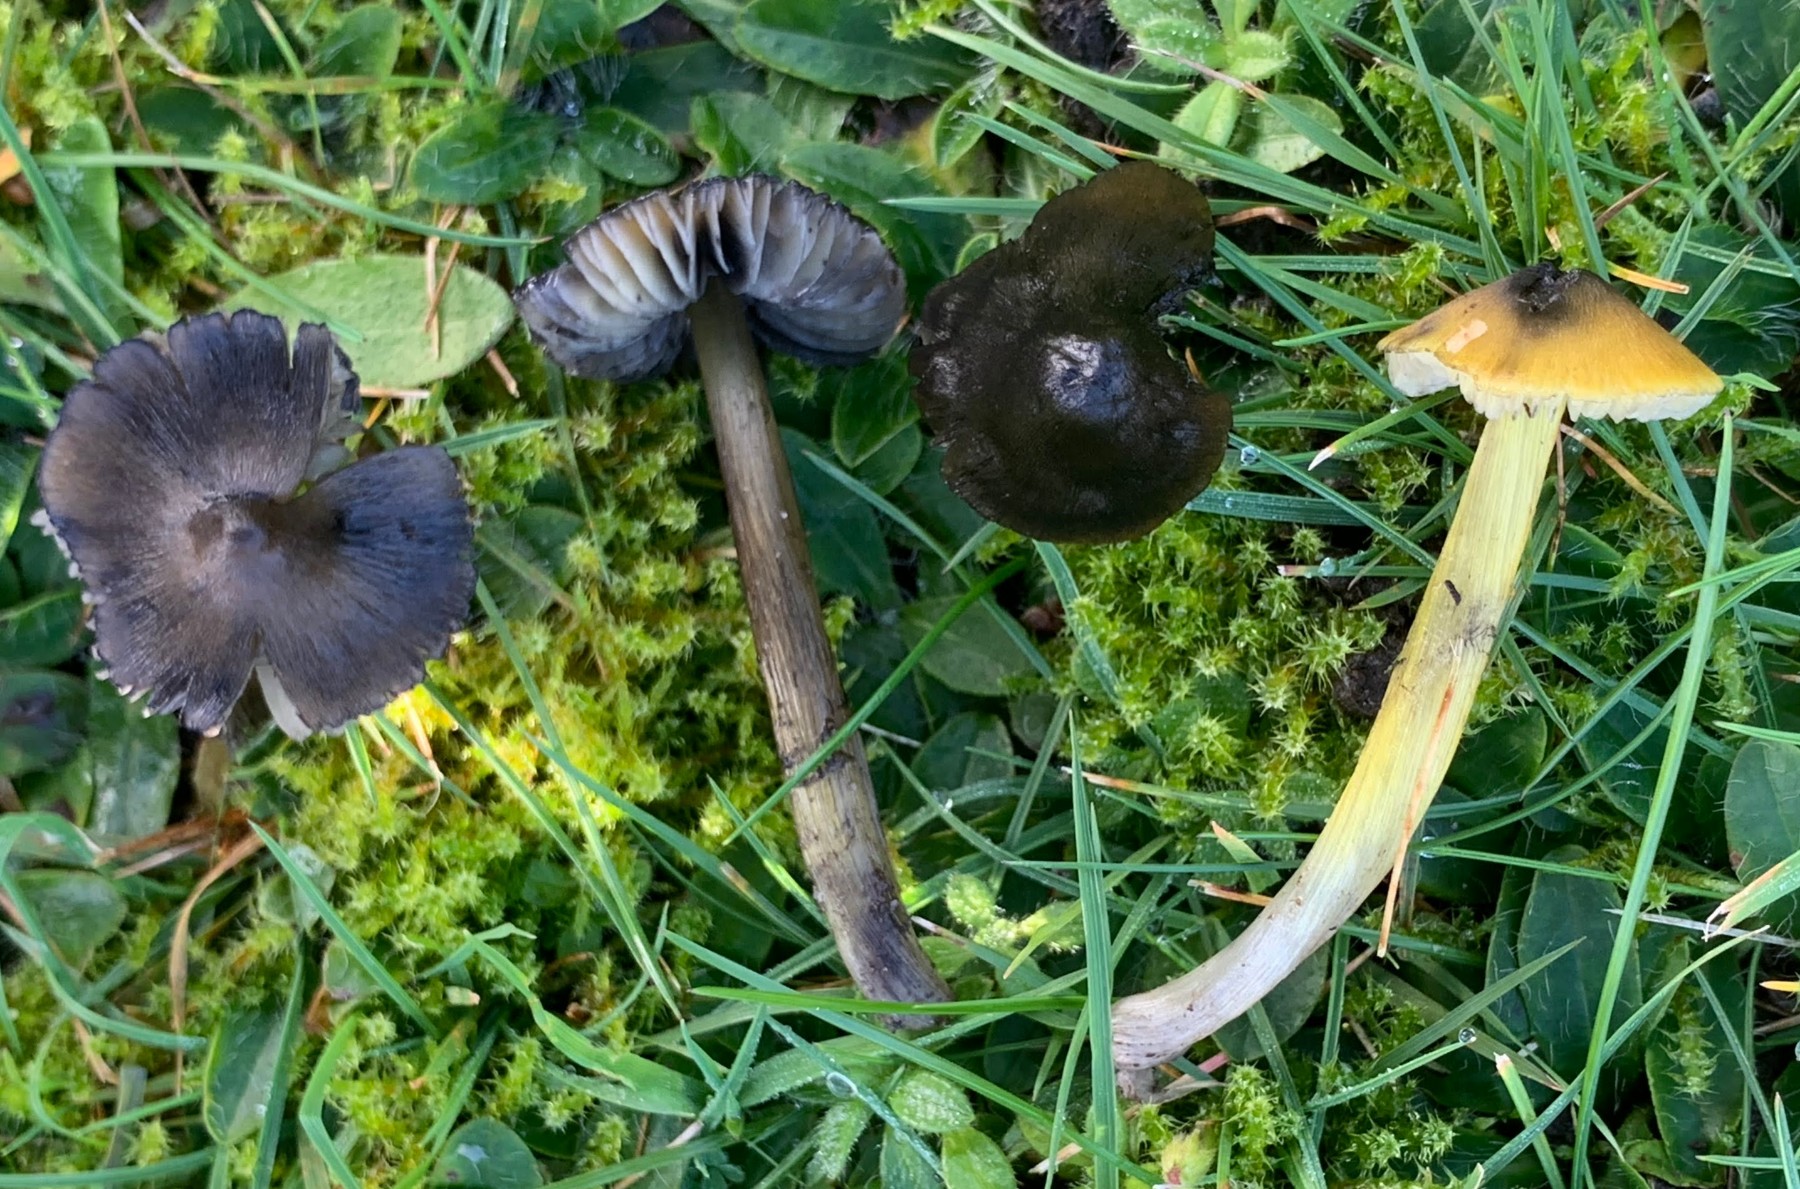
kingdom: Fungi
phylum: Basidiomycota
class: Agaricomycetes
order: Agaricales
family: Hygrophoraceae
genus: Hygrocybe
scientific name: Hygrocybe conica
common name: kegle-vokshat
